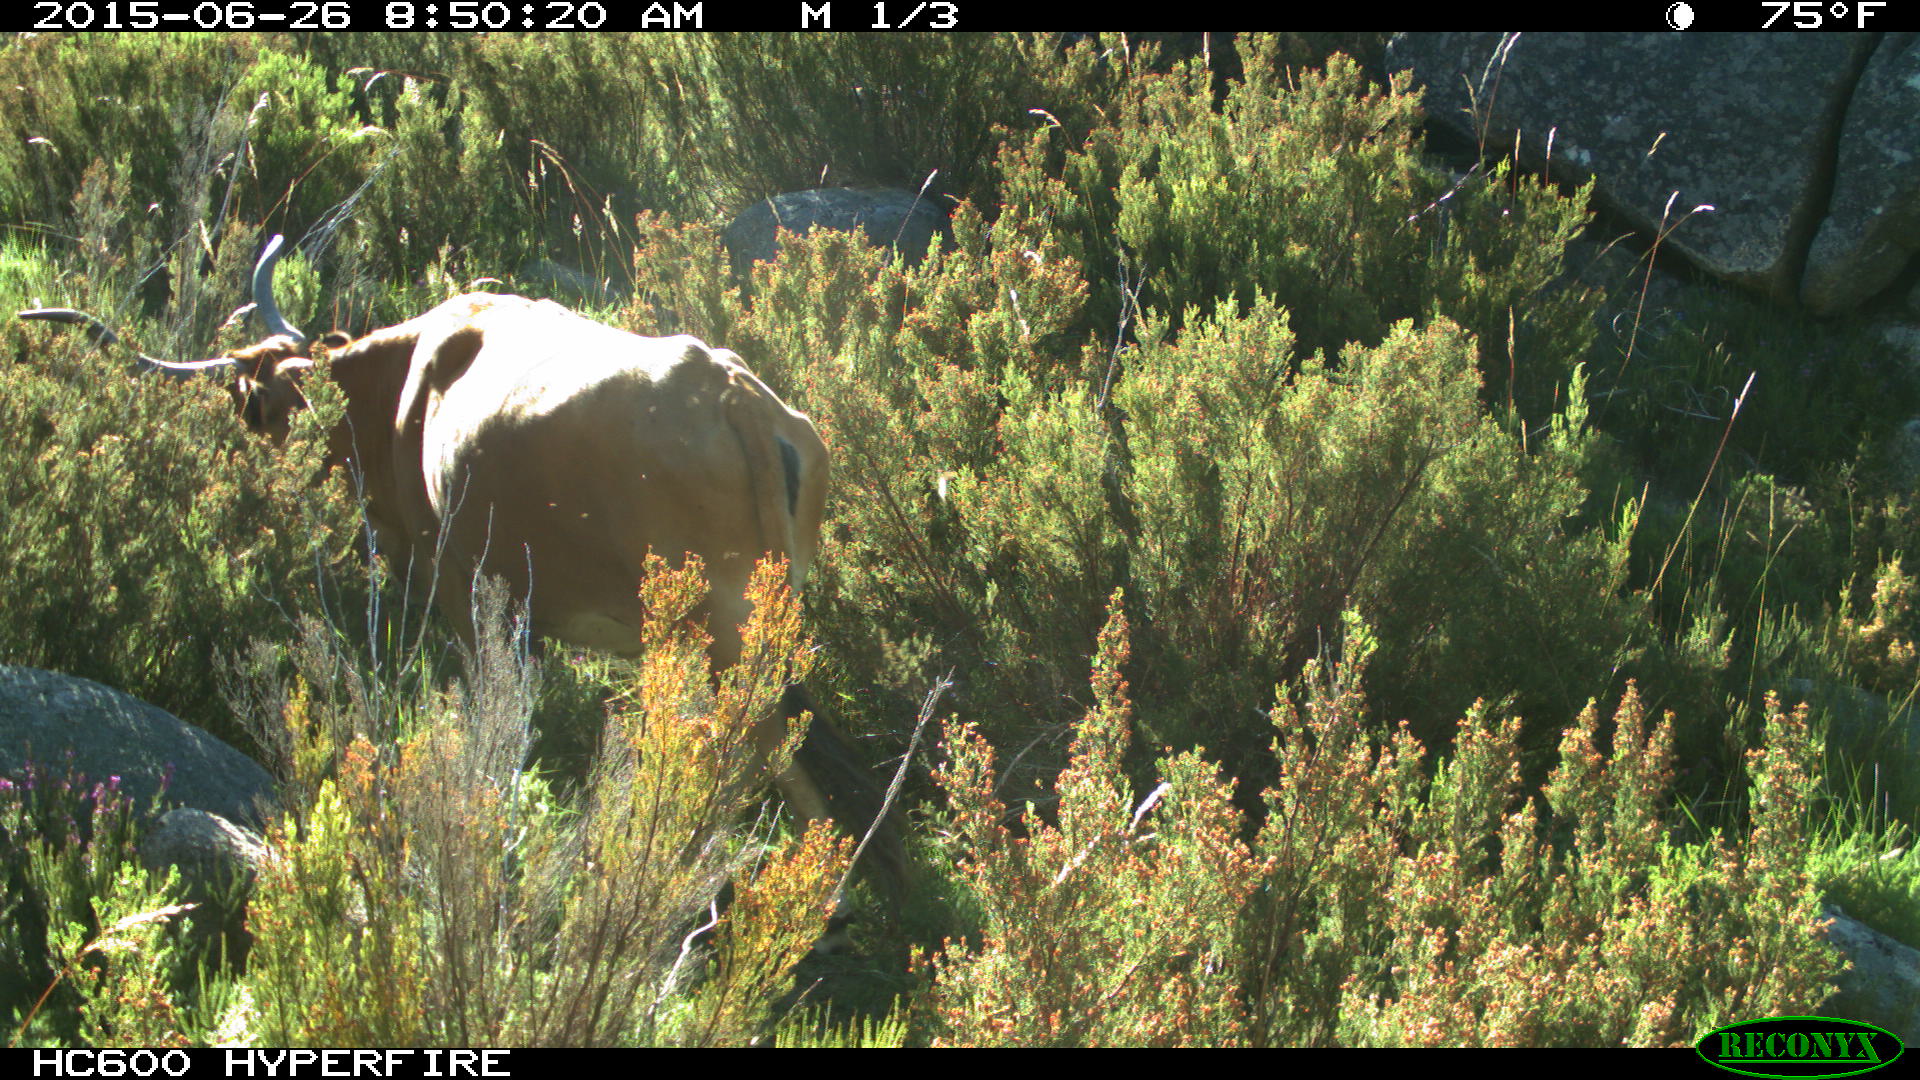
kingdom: Animalia
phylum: Chordata
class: Mammalia
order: Artiodactyla
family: Bovidae
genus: Bos
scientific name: Bos taurus
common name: Domesticated cattle
